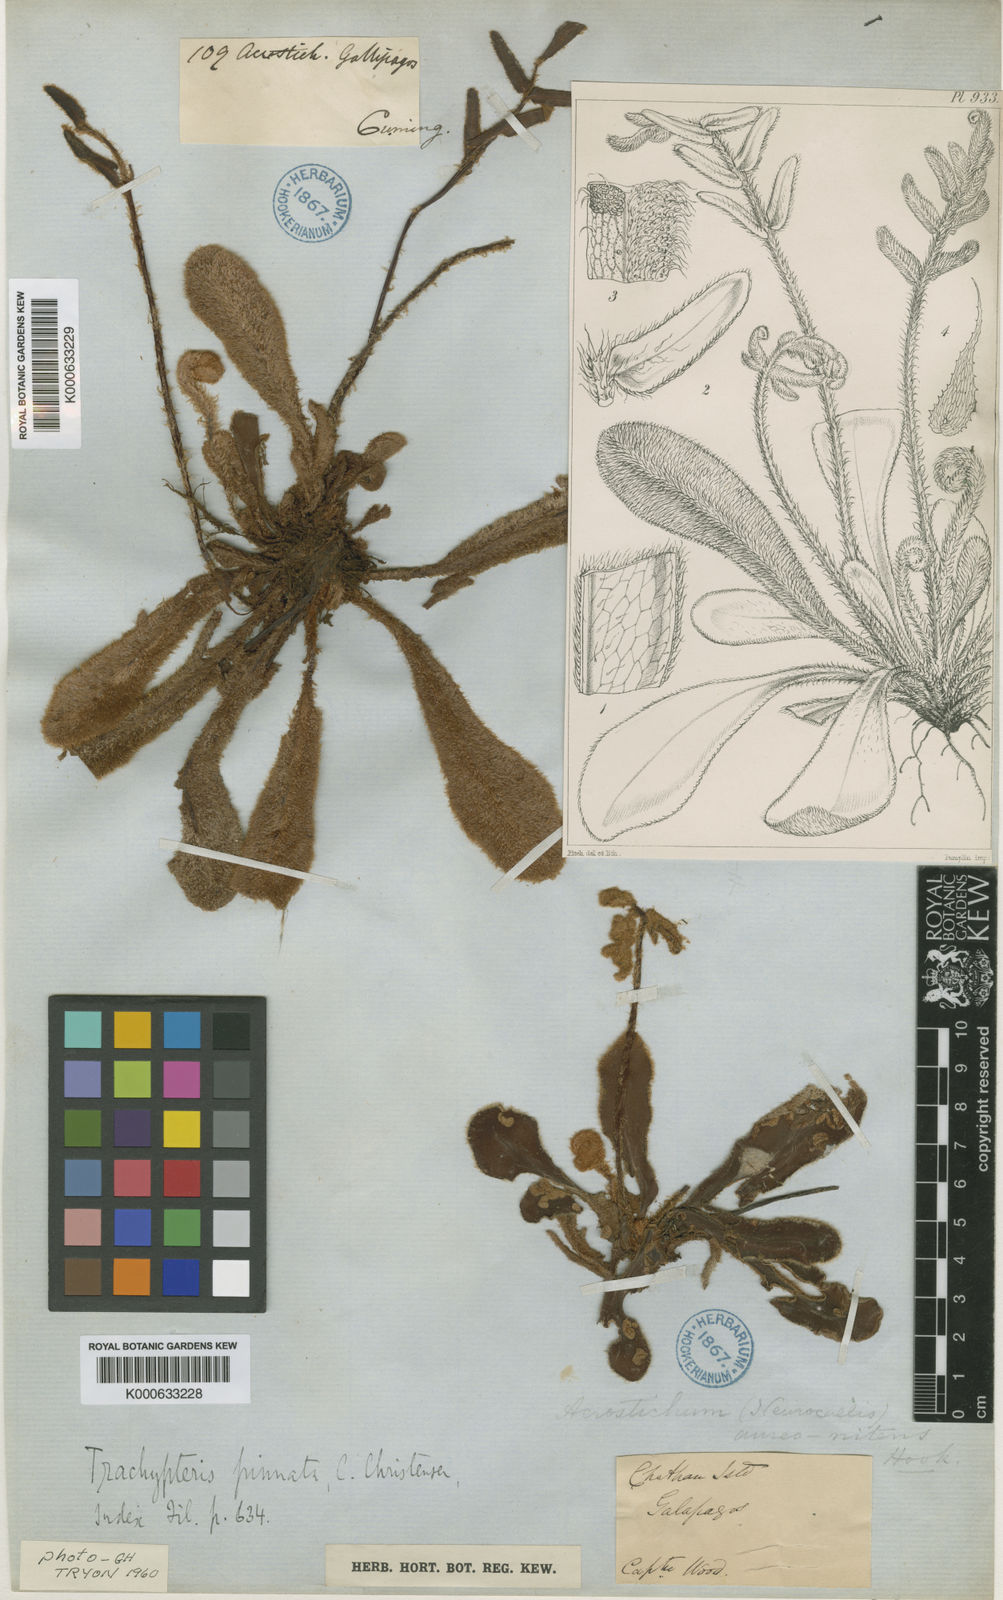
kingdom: Plantae
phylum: Tracheophyta
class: Polypodiopsida
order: Polypodiales
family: Pteridaceae
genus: Trachypteris
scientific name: Trachypteris pinnata
